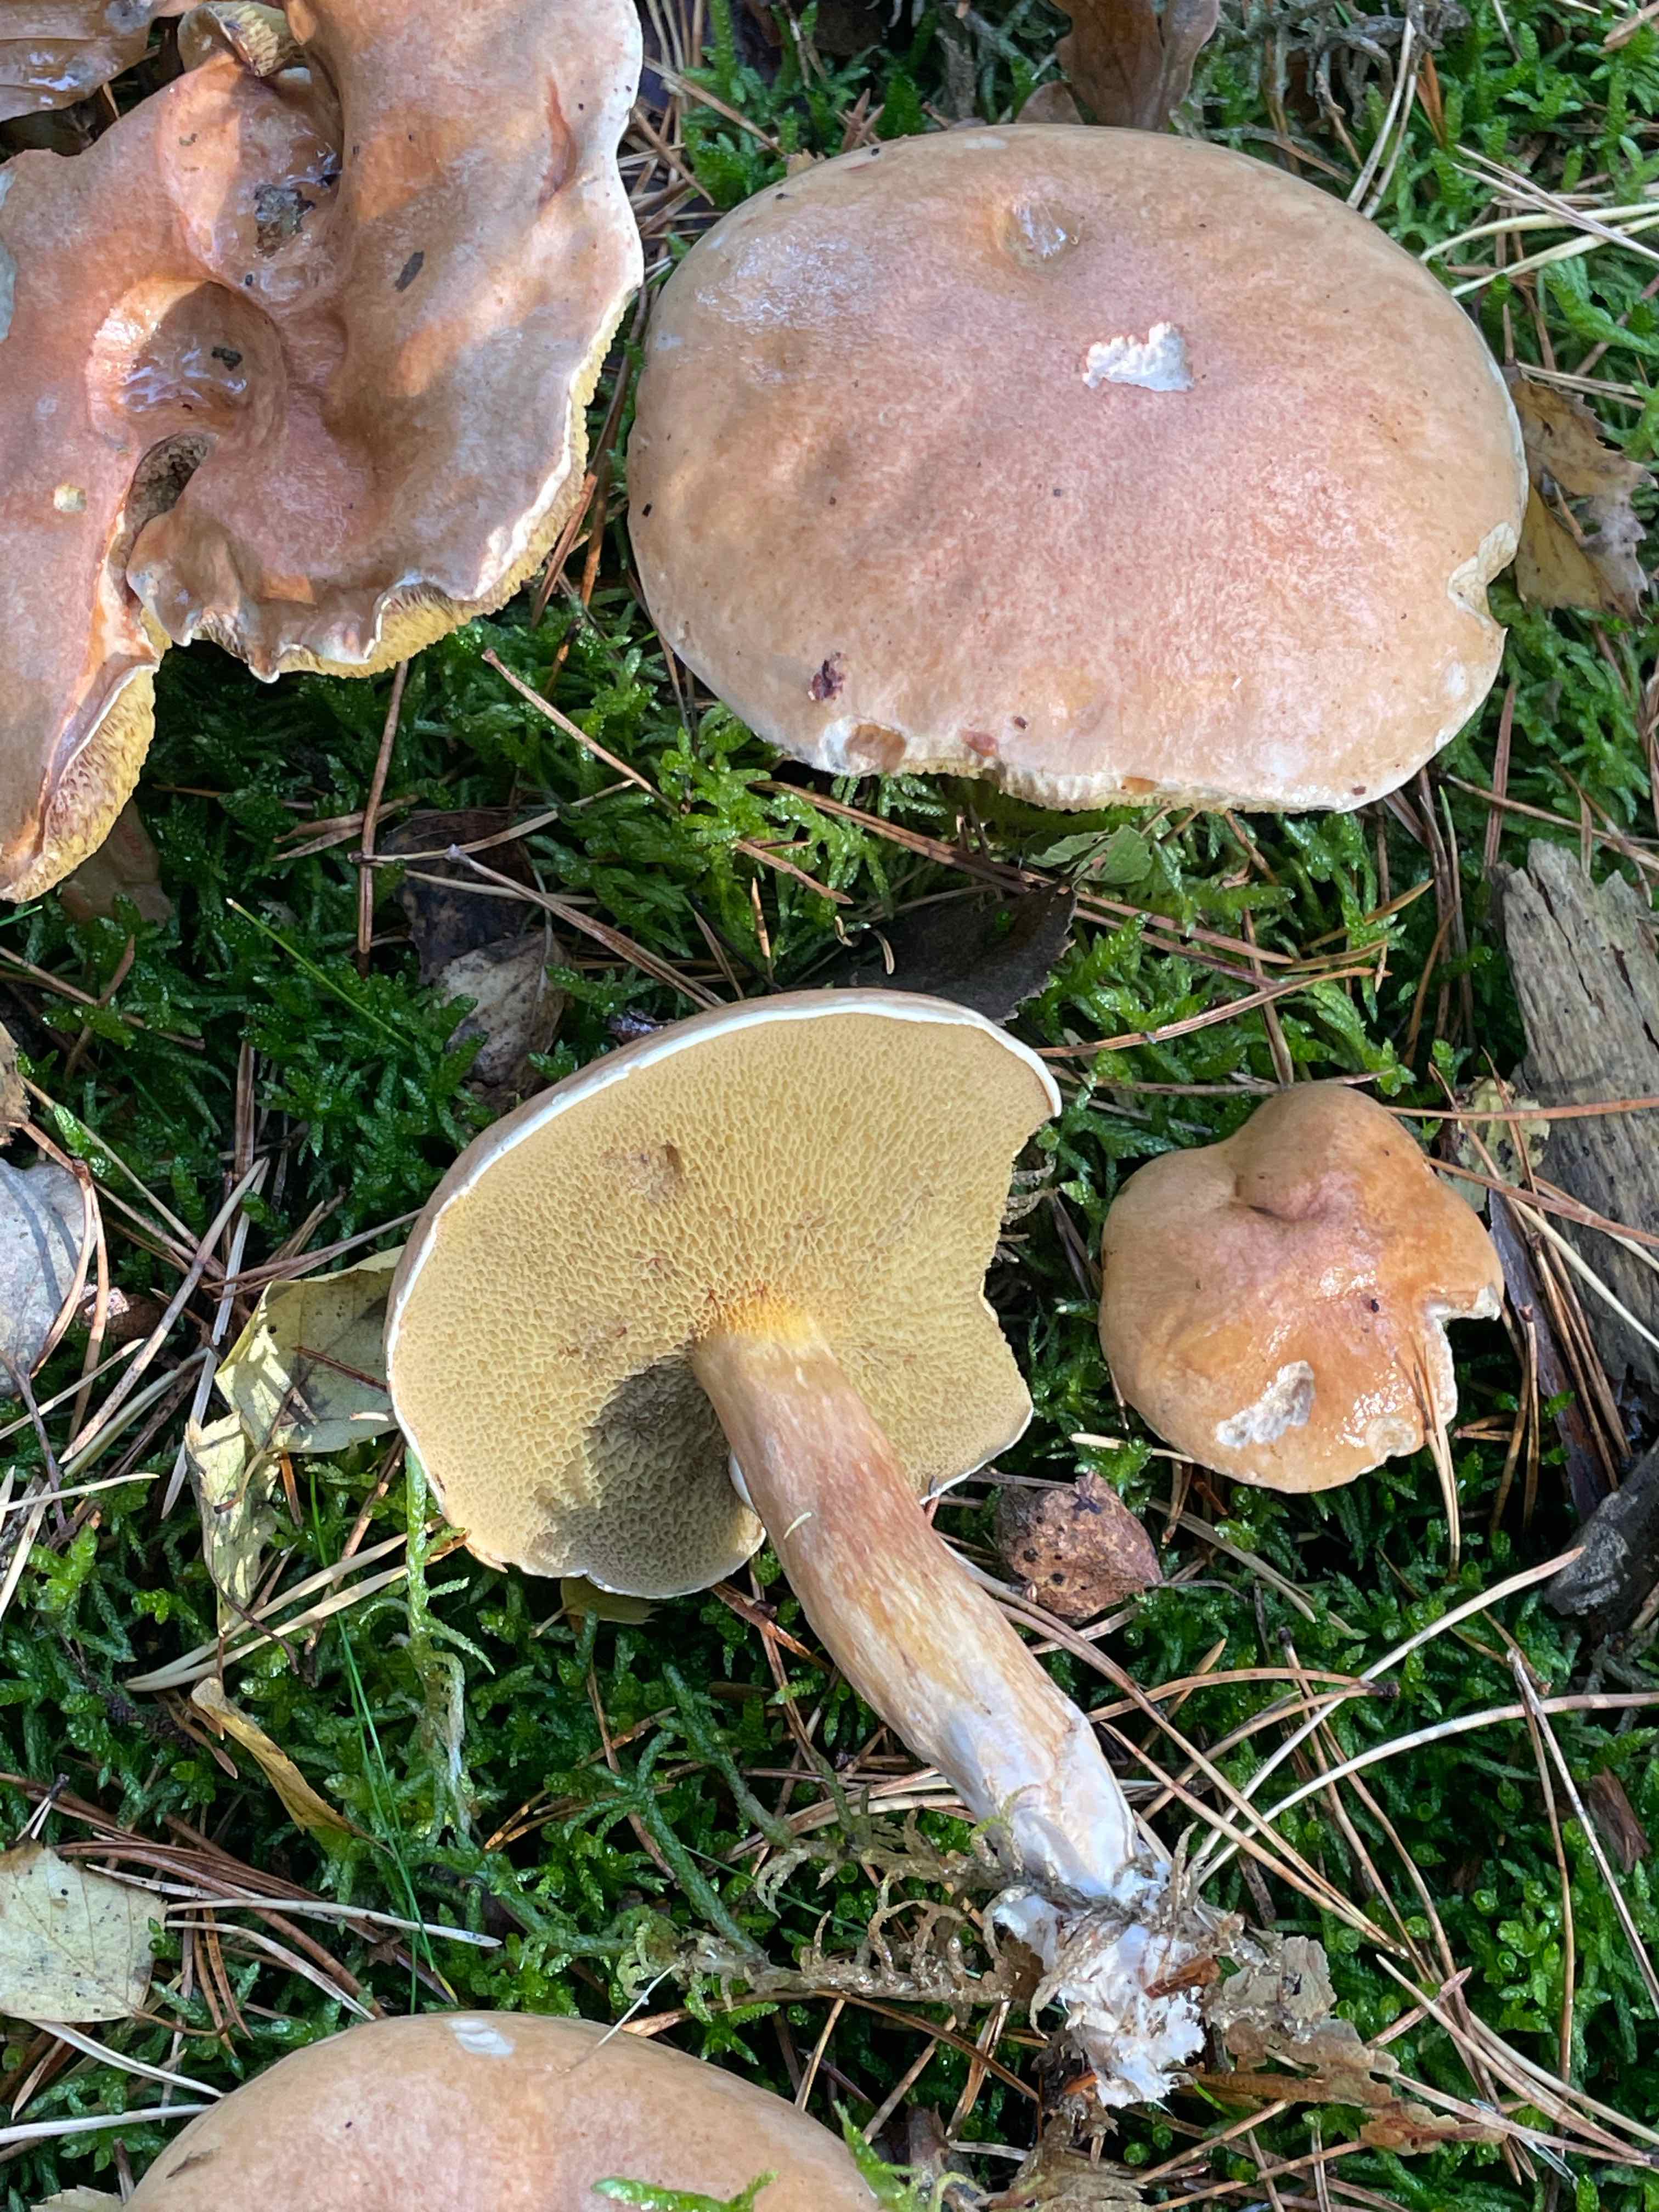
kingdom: Fungi
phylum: Basidiomycota
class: Agaricomycetes
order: Boletales
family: Suillaceae
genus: Suillus
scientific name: Suillus bovinus
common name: grovporet slimrørhat
